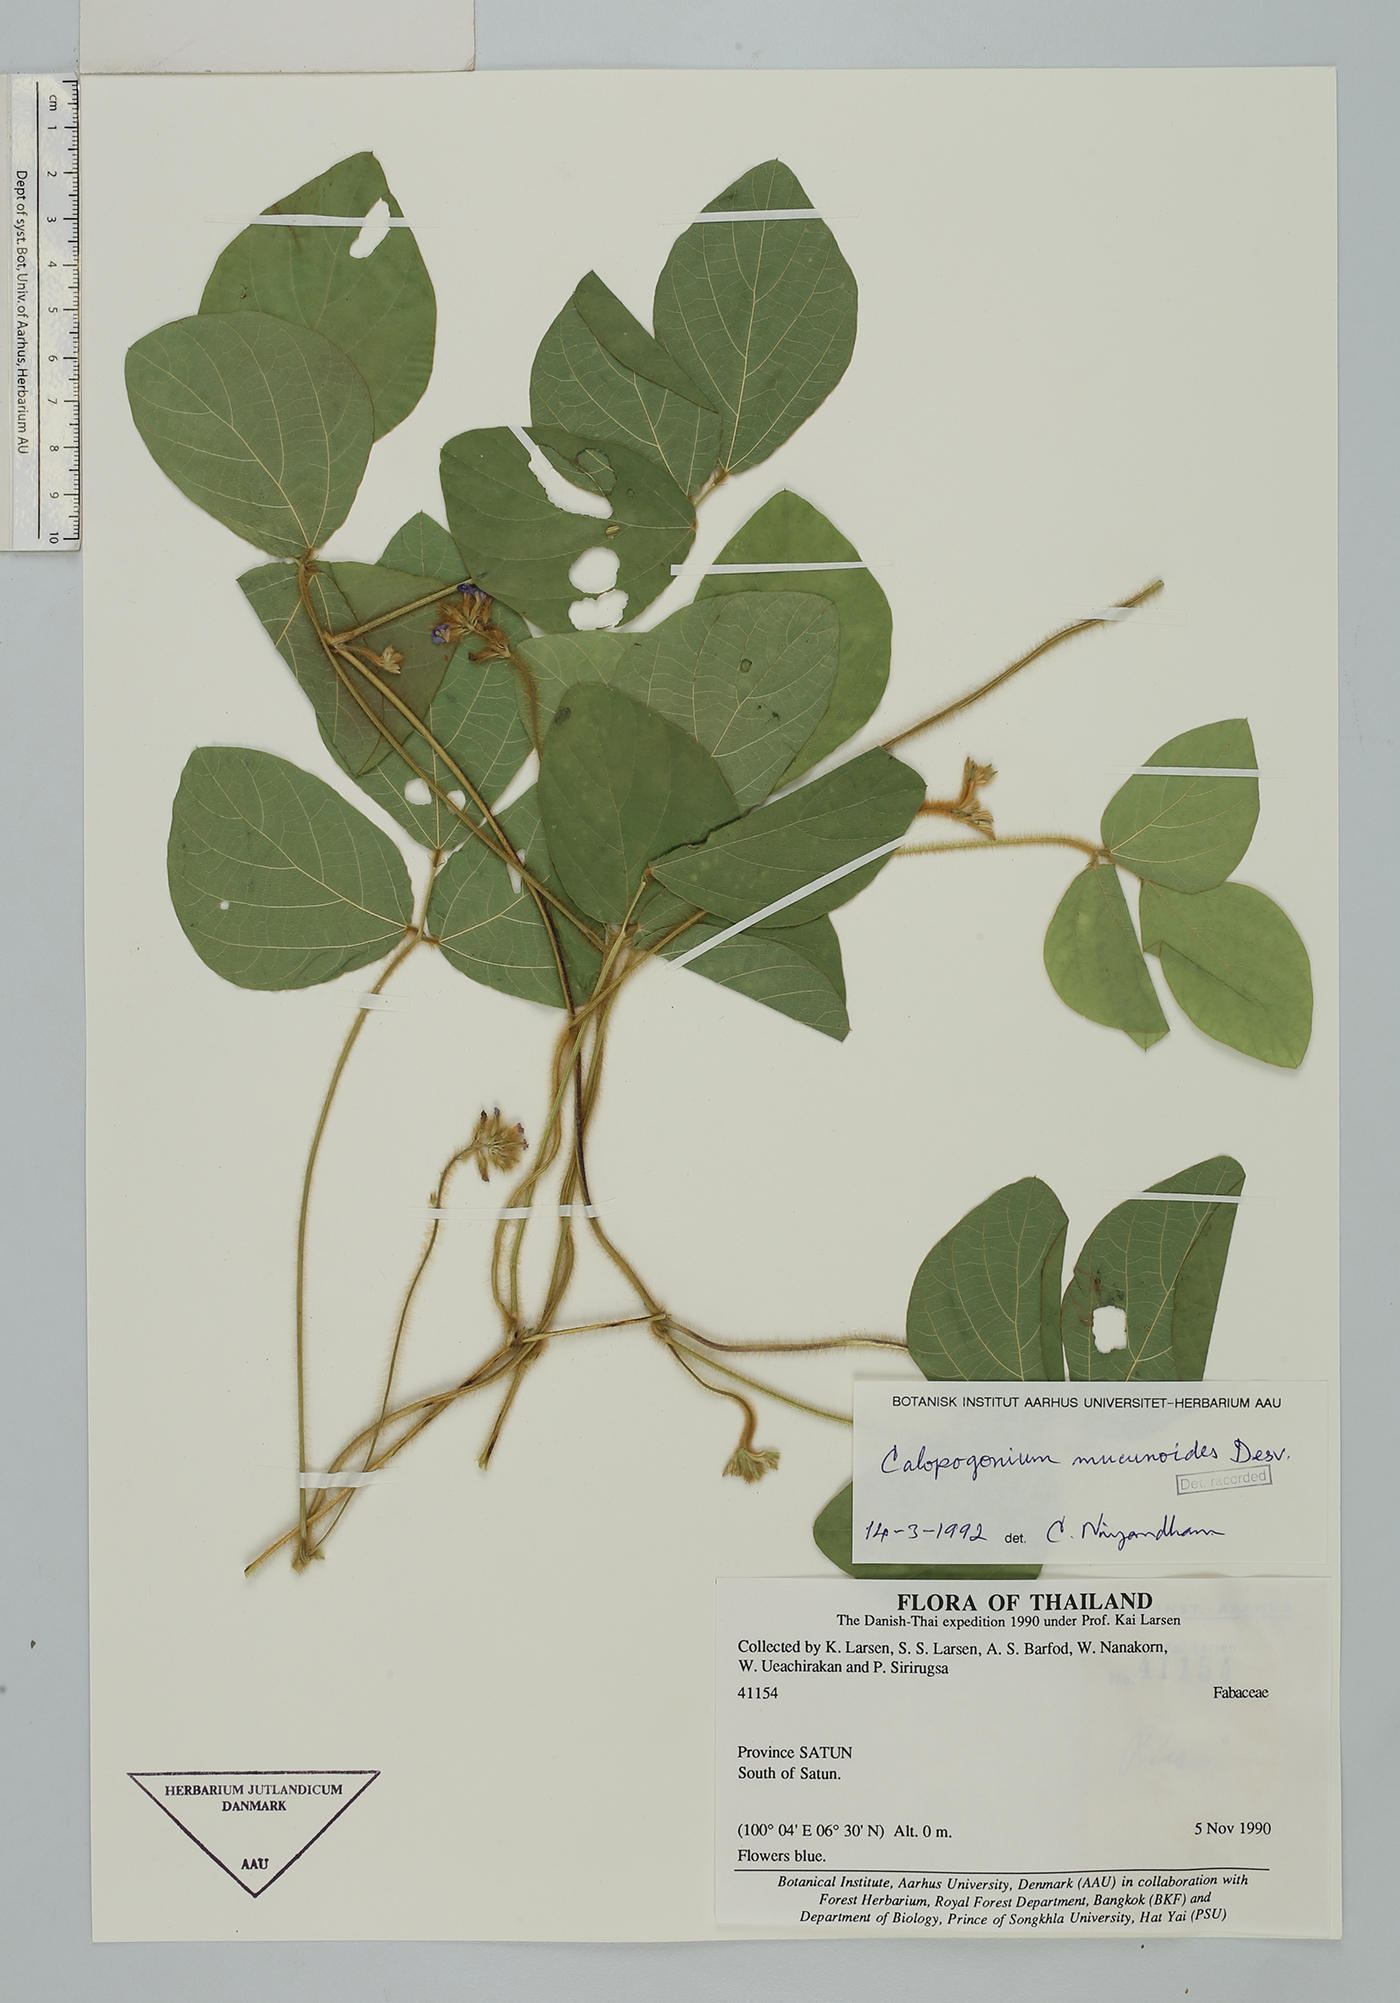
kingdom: Plantae
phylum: Tracheophyta
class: Magnoliopsida
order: Fabales
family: Fabaceae
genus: Calopogonium
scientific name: Calopogonium mucunoides
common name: Calopo
